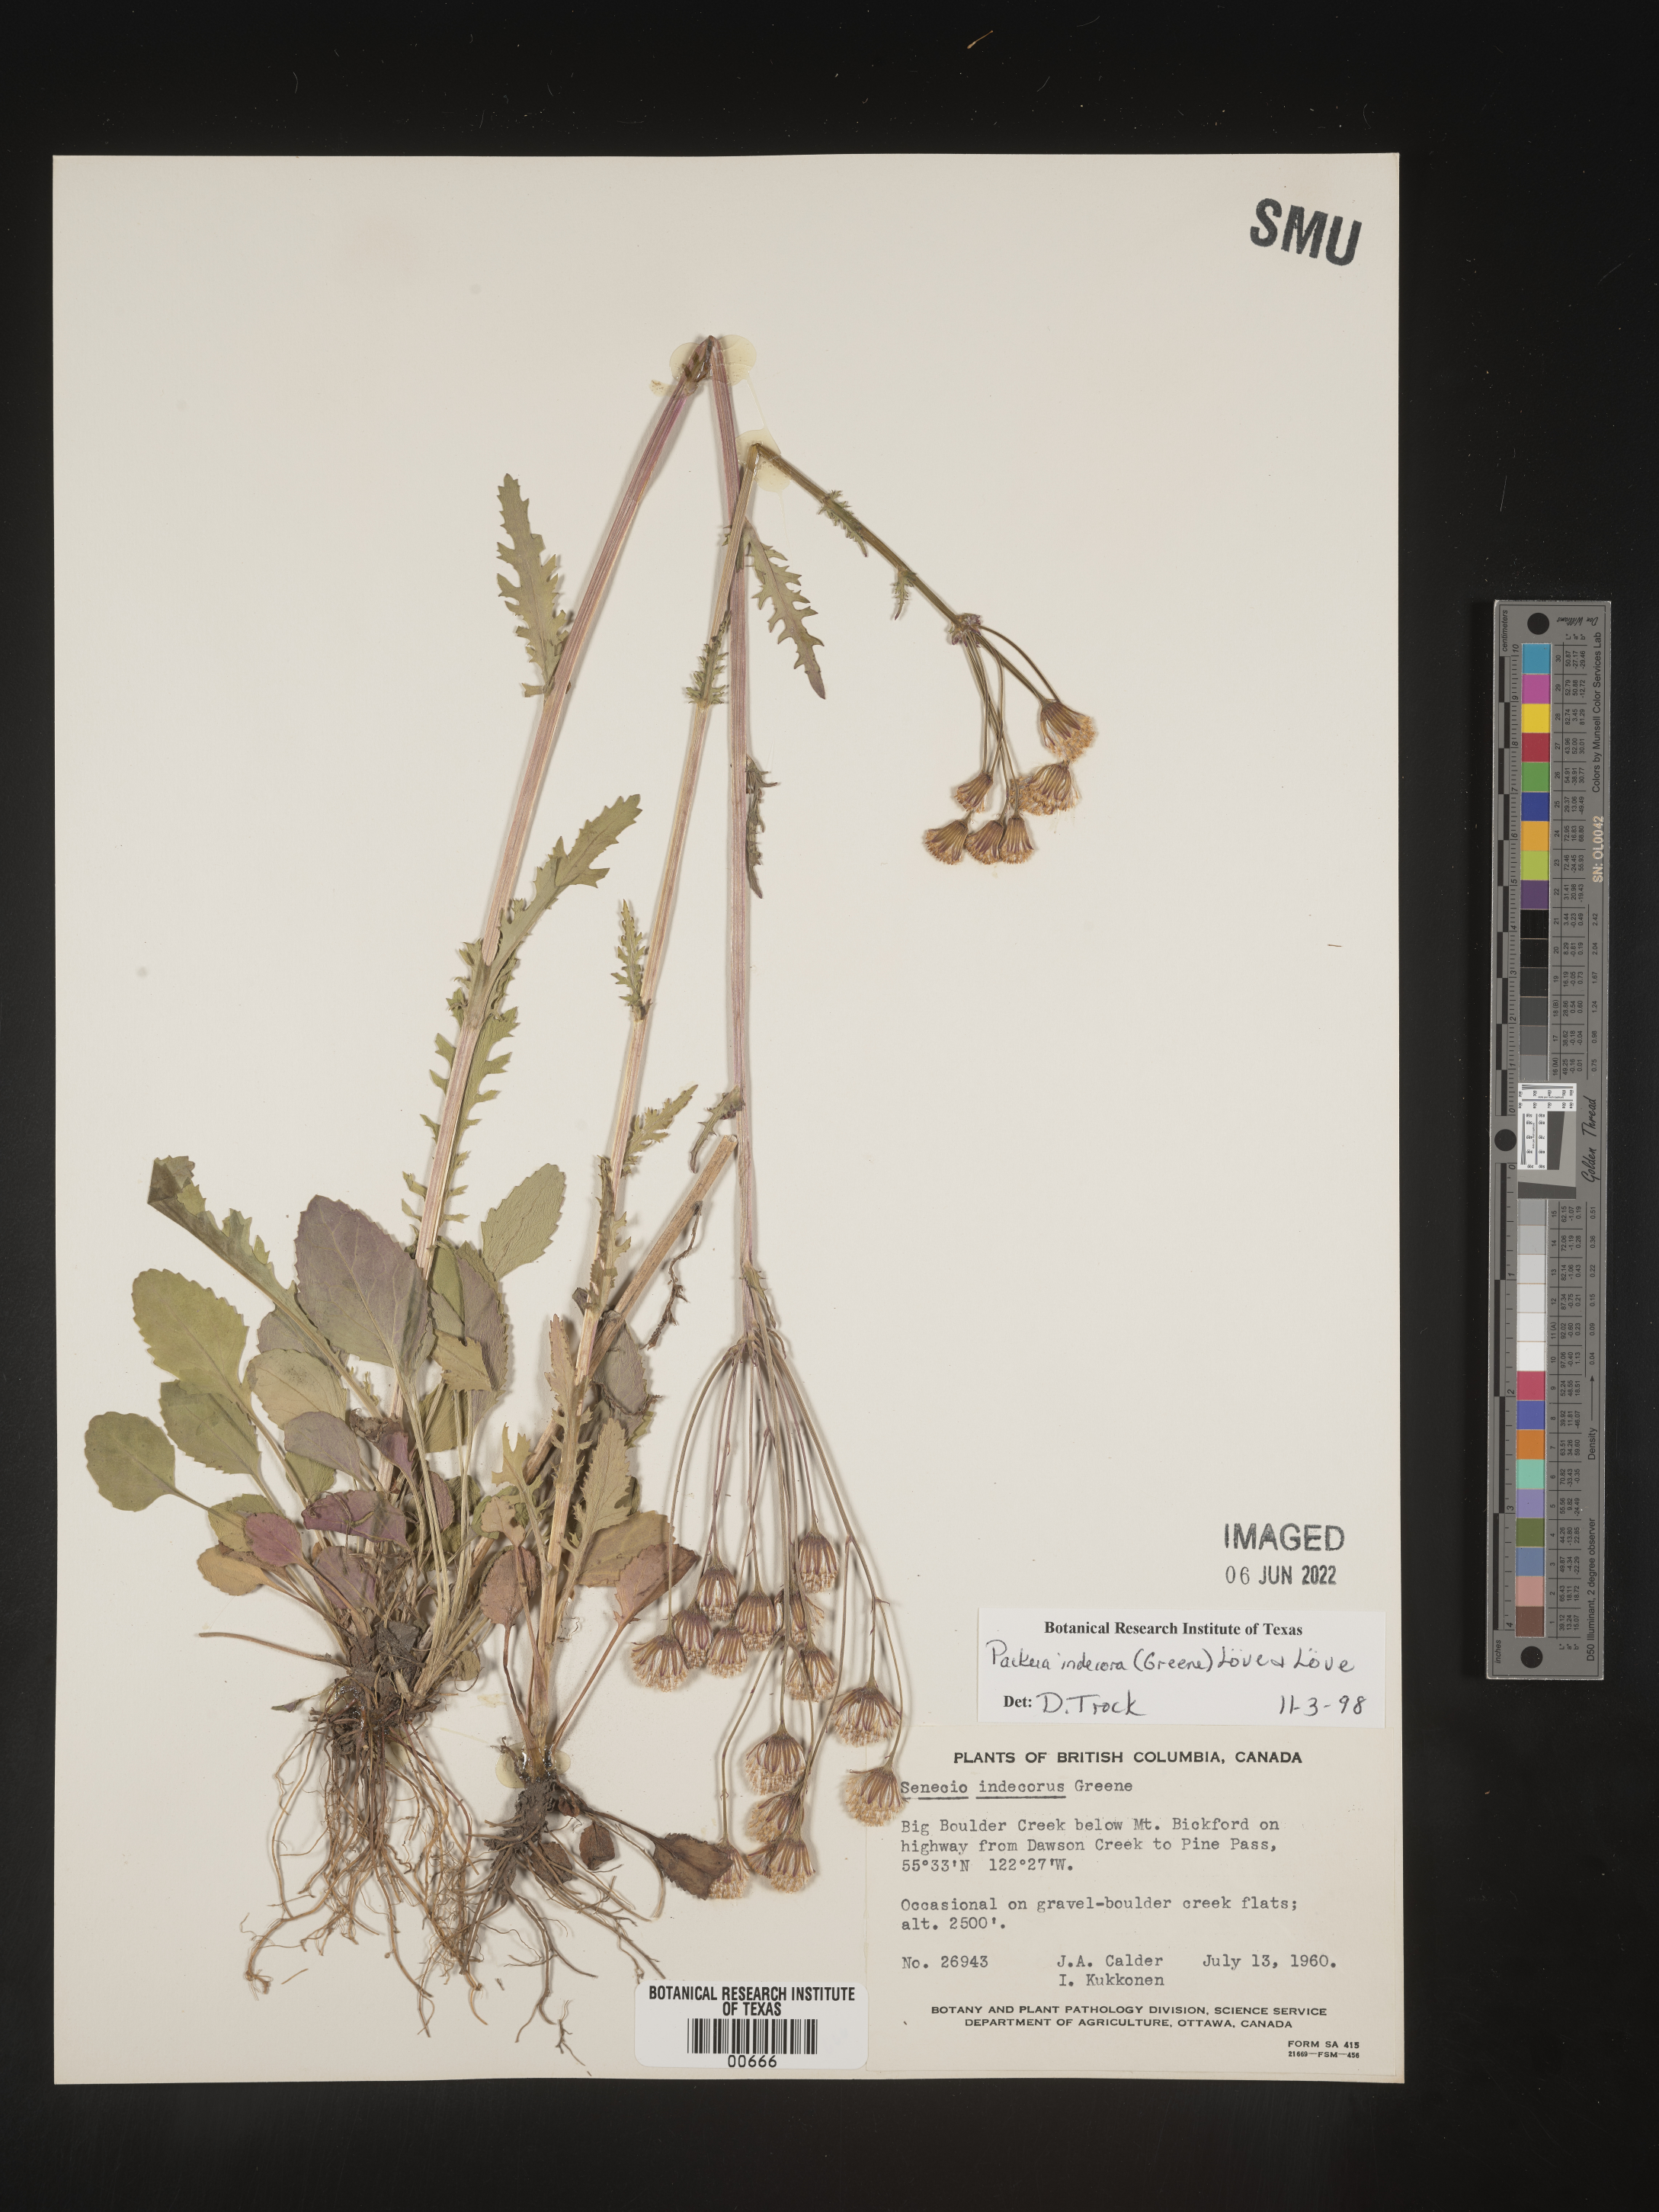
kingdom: Plantae
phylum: Tracheophyta
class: Magnoliopsida
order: Asterales
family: Asteraceae
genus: Packera
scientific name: Packera
